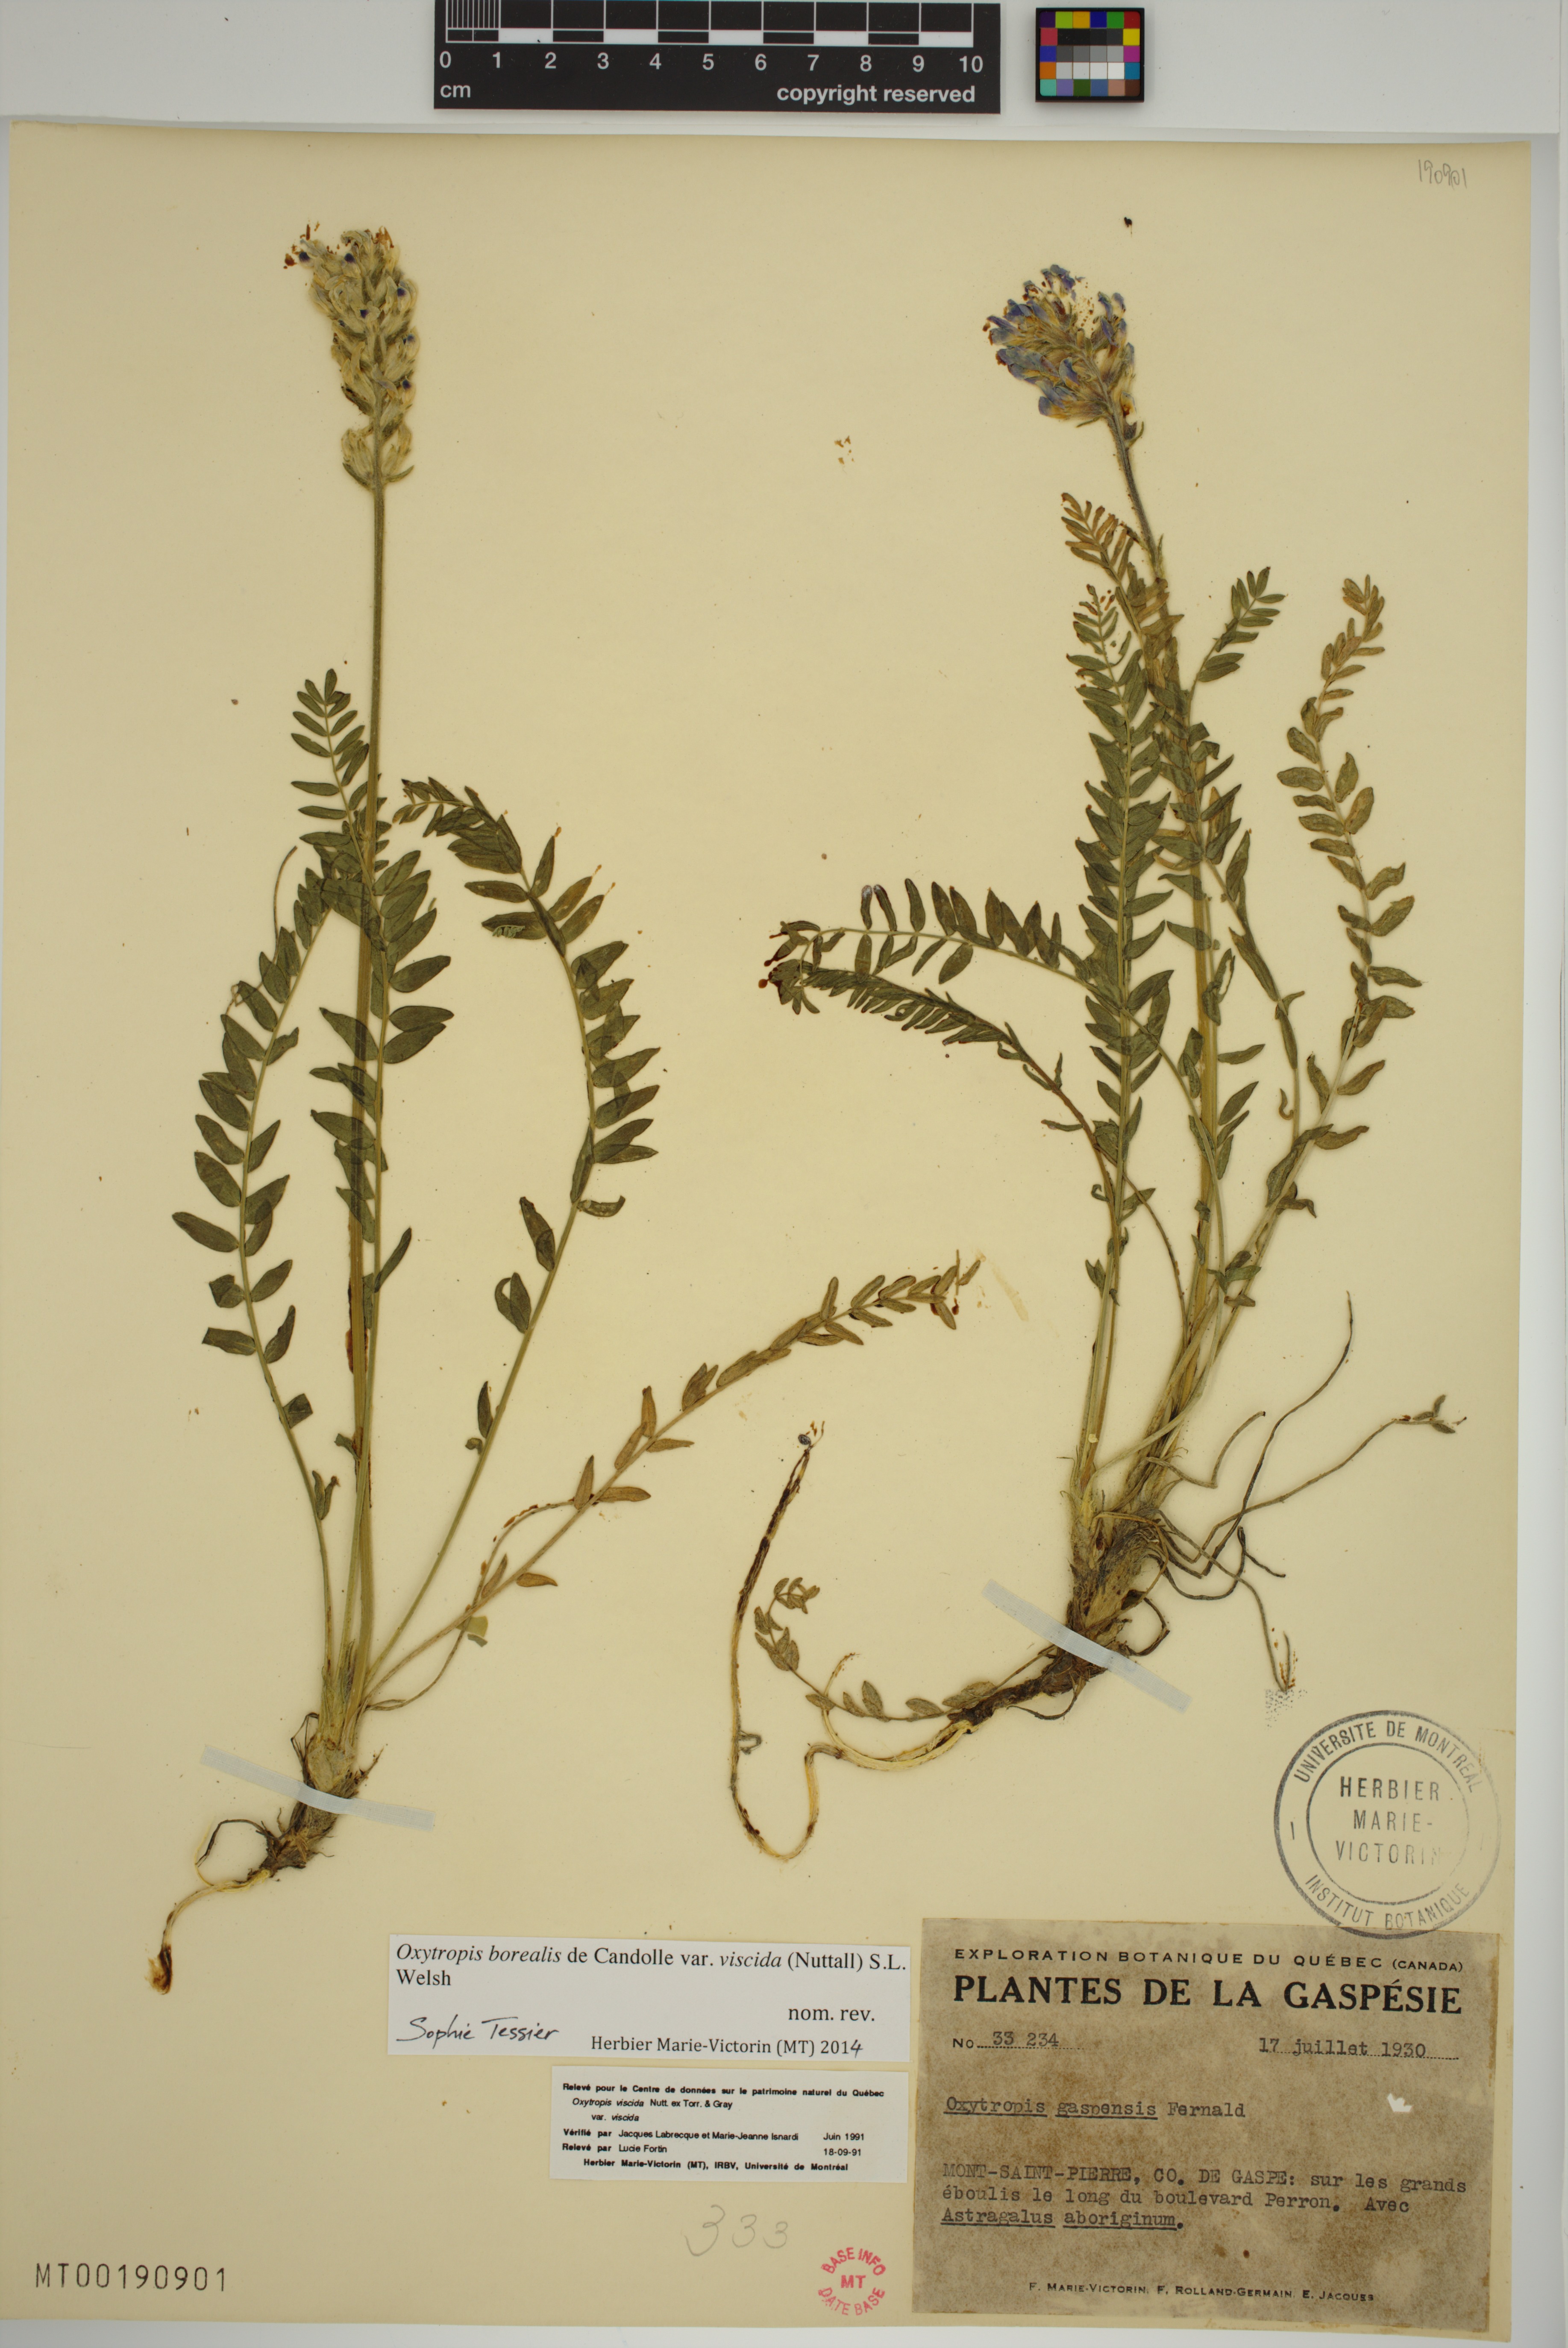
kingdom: Plantae
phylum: Tracheophyta
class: Magnoliopsida
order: Fabales
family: Fabaceae
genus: Oxytropis
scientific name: Oxytropis borealis
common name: Boreal locoweed
